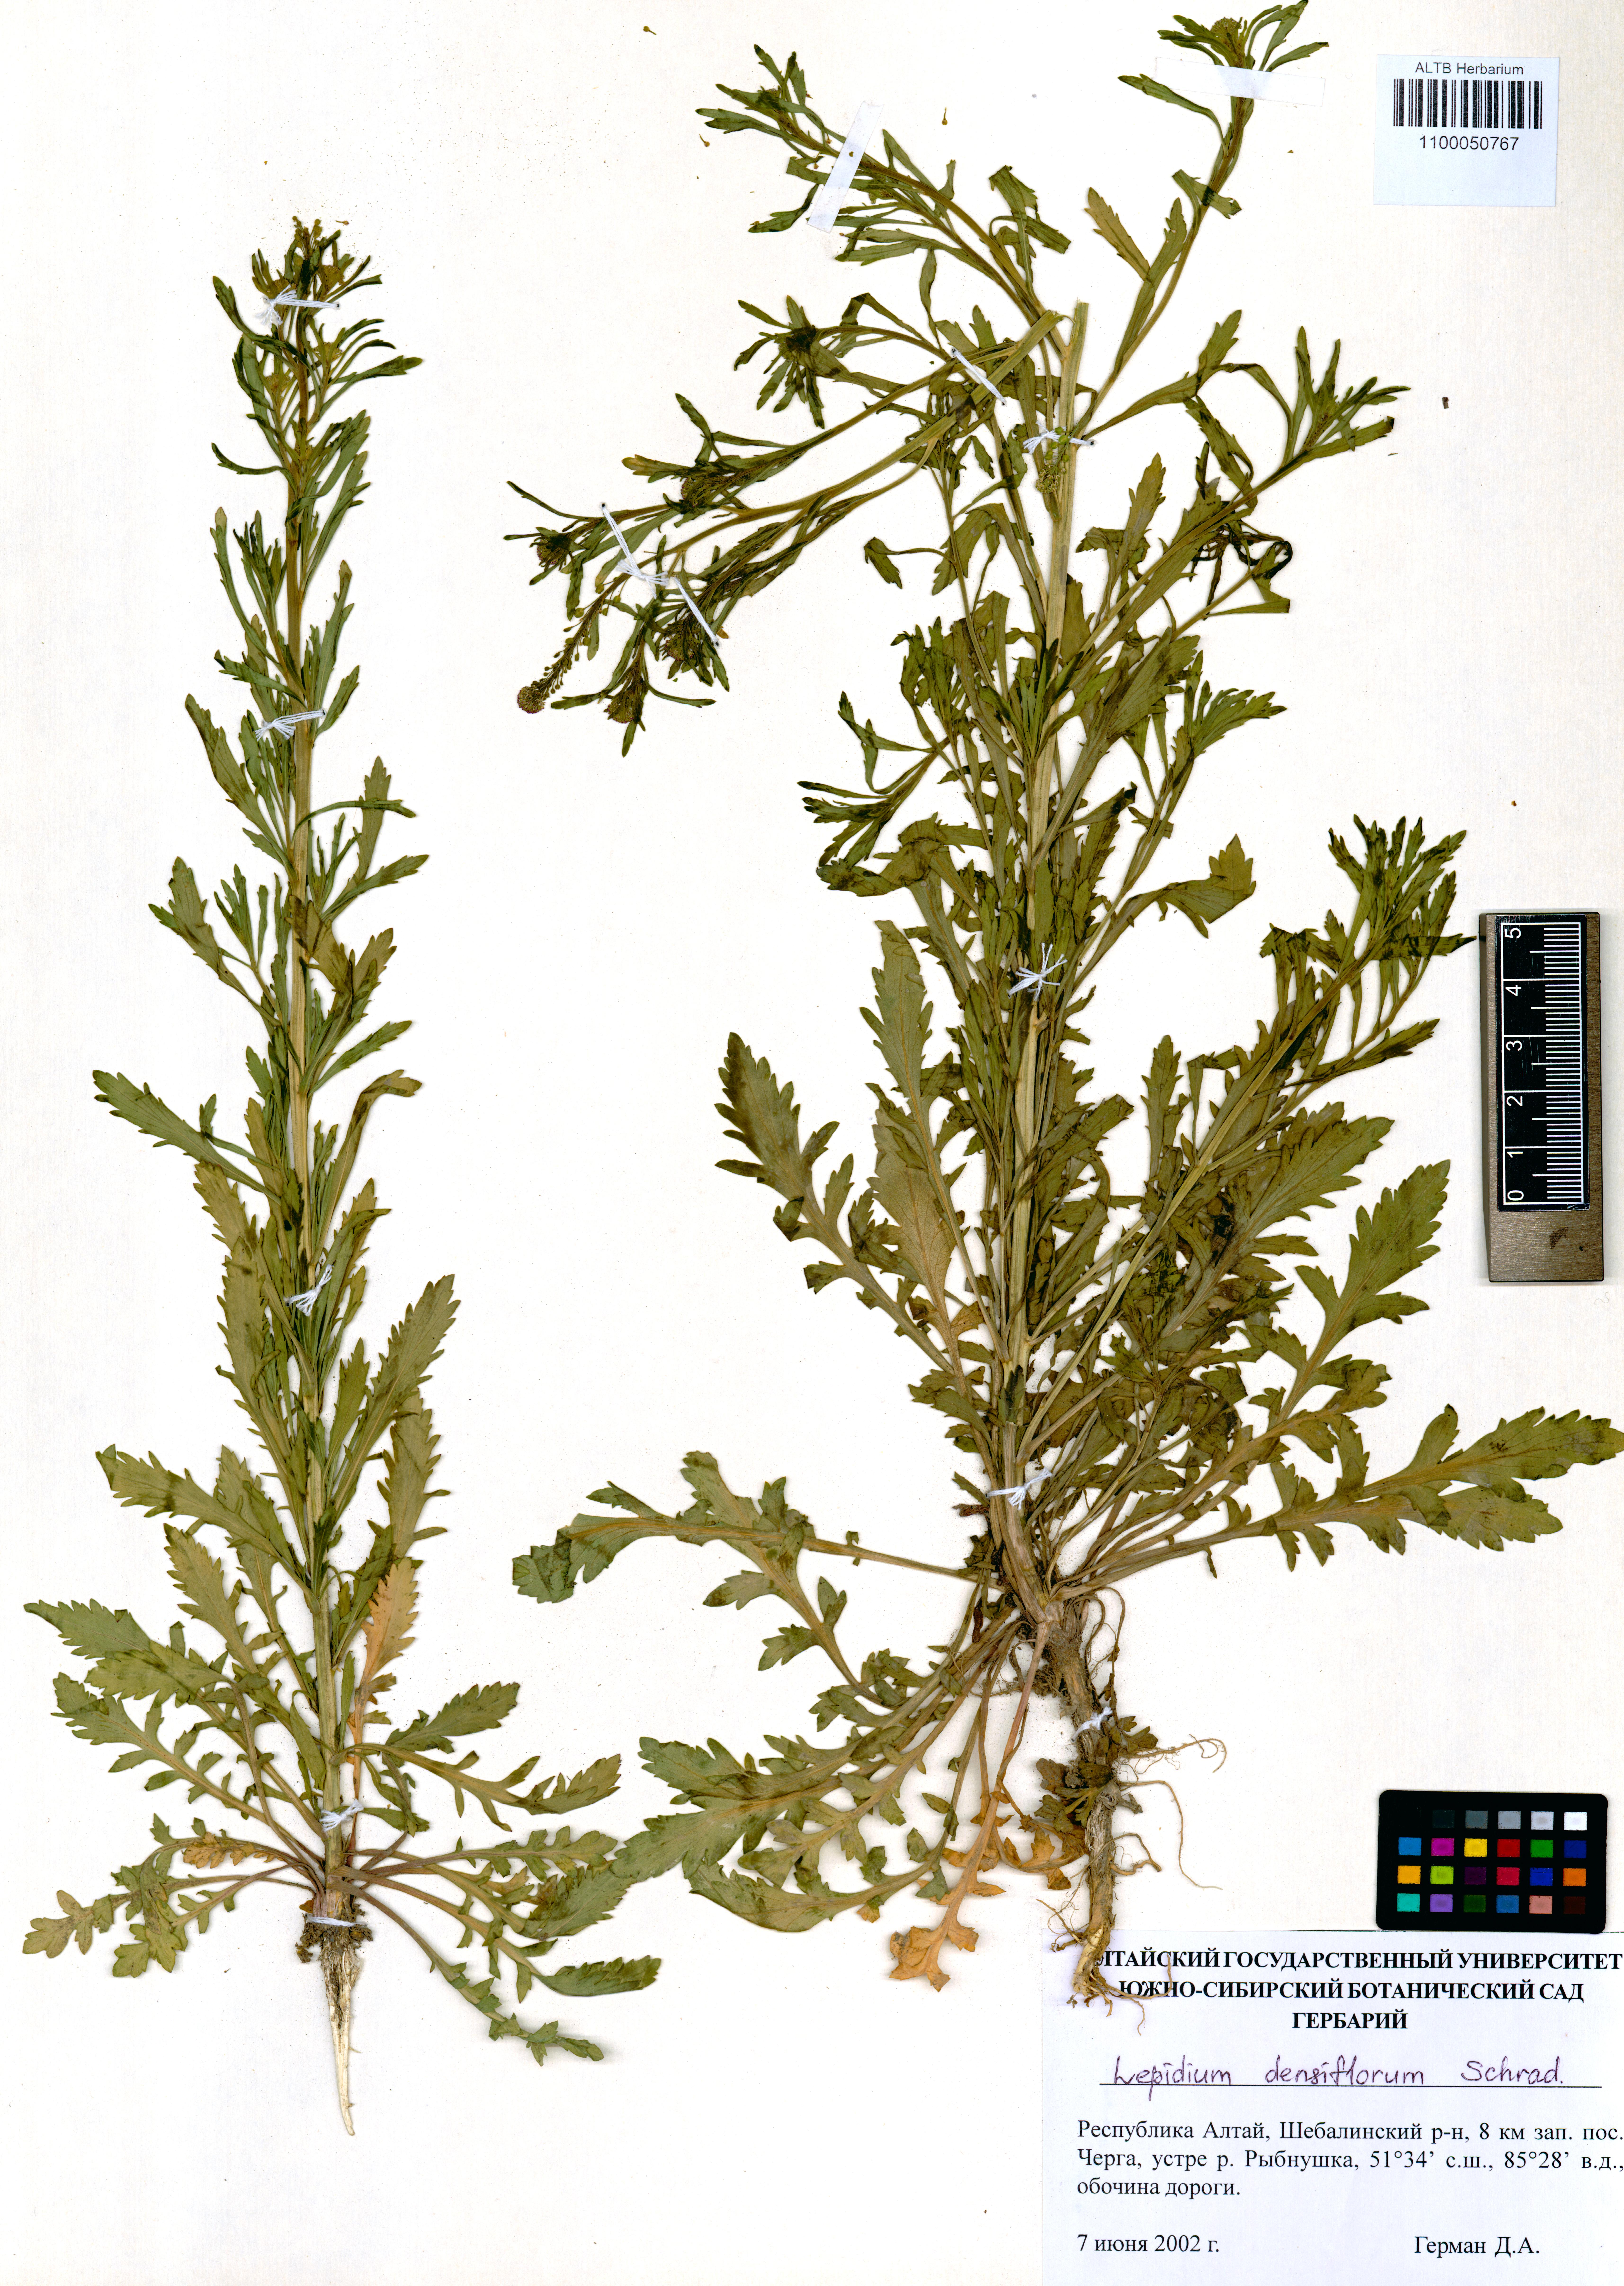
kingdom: Plantae
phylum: Tracheophyta
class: Magnoliopsida
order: Brassicales
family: Brassicaceae
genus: Lepidium
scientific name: Lepidium densiflorum
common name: Miner's pepperwort
